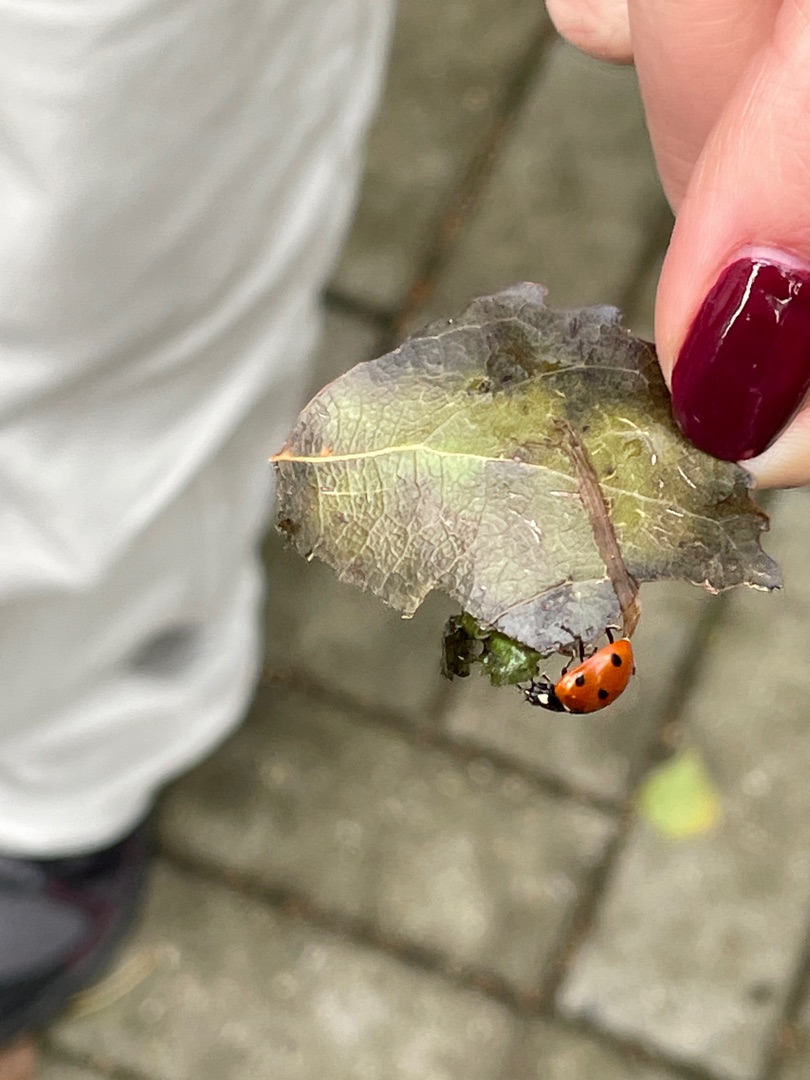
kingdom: Animalia
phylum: Arthropoda
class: Insecta
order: Coleoptera
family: Coccinellidae
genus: Coccinella
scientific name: Coccinella septempunctata
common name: Syvplettet mariehøne
